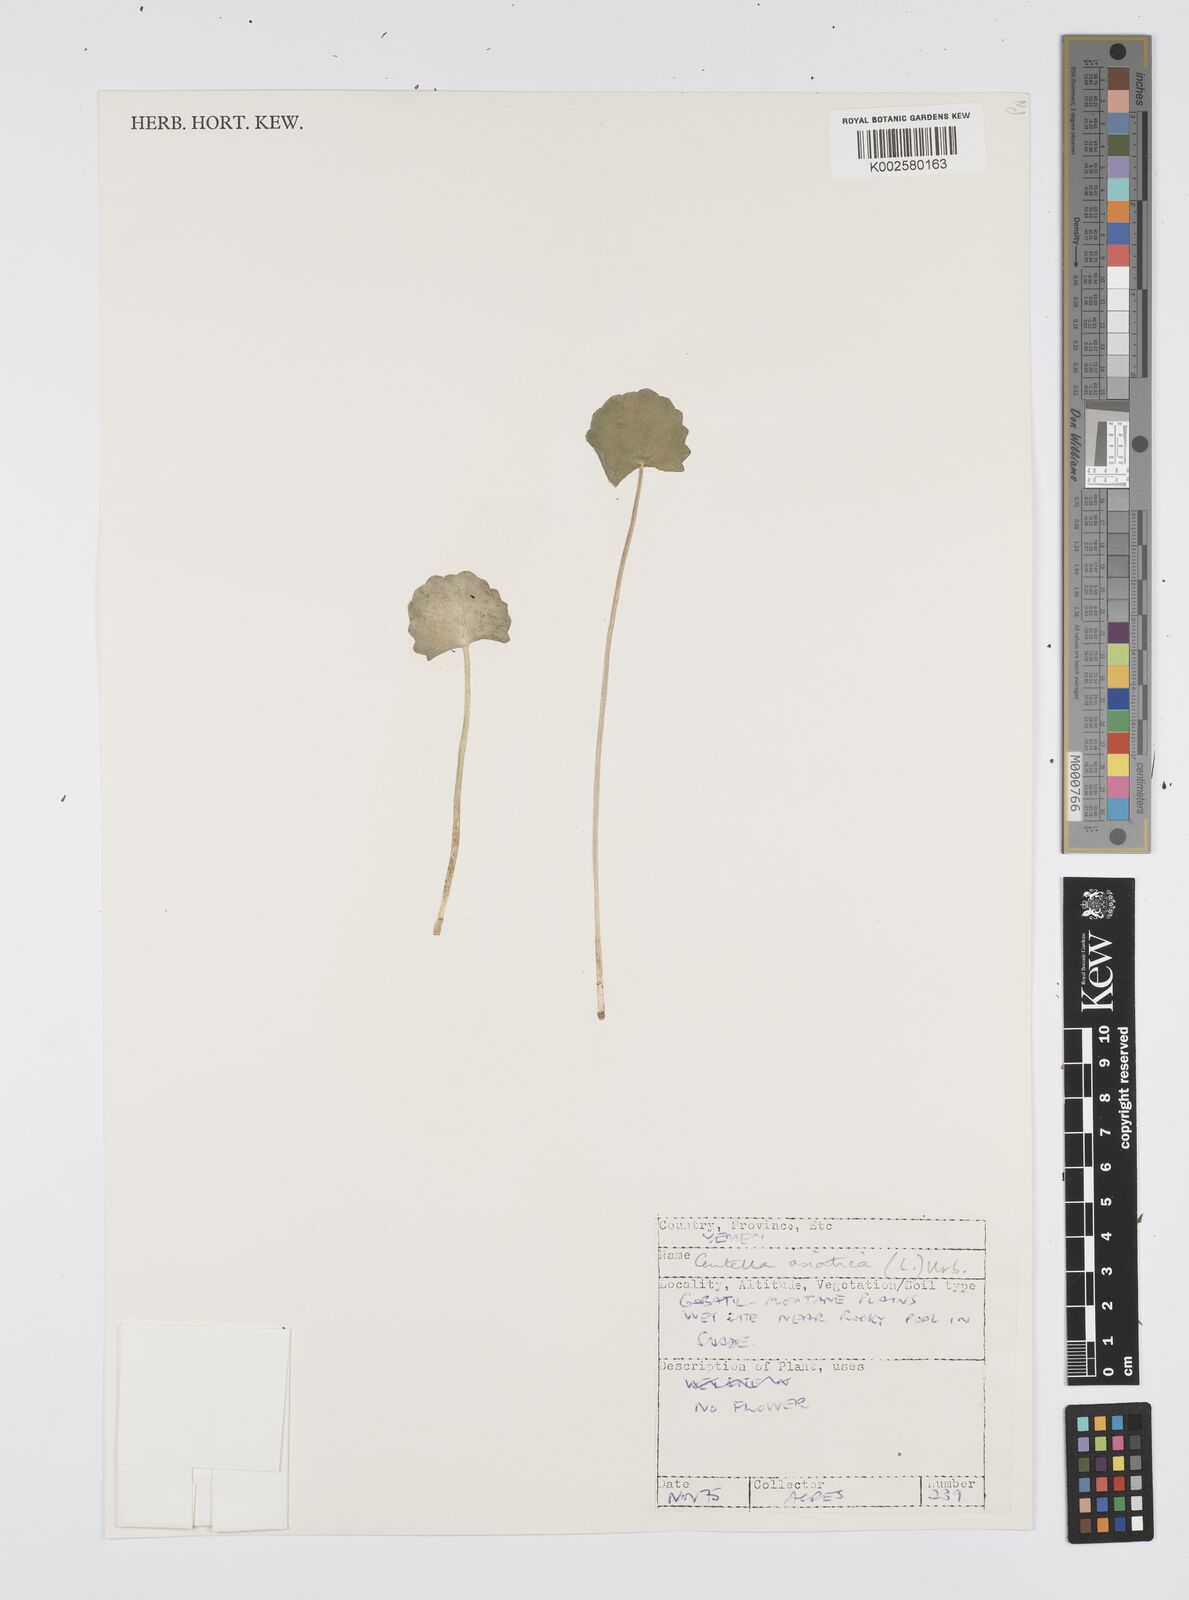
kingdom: Plantae
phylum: Tracheophyta
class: Magnoliopsida
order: Apiales
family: Apiaceae
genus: Centella
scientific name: Centella asiatica
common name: Spadeleaf
